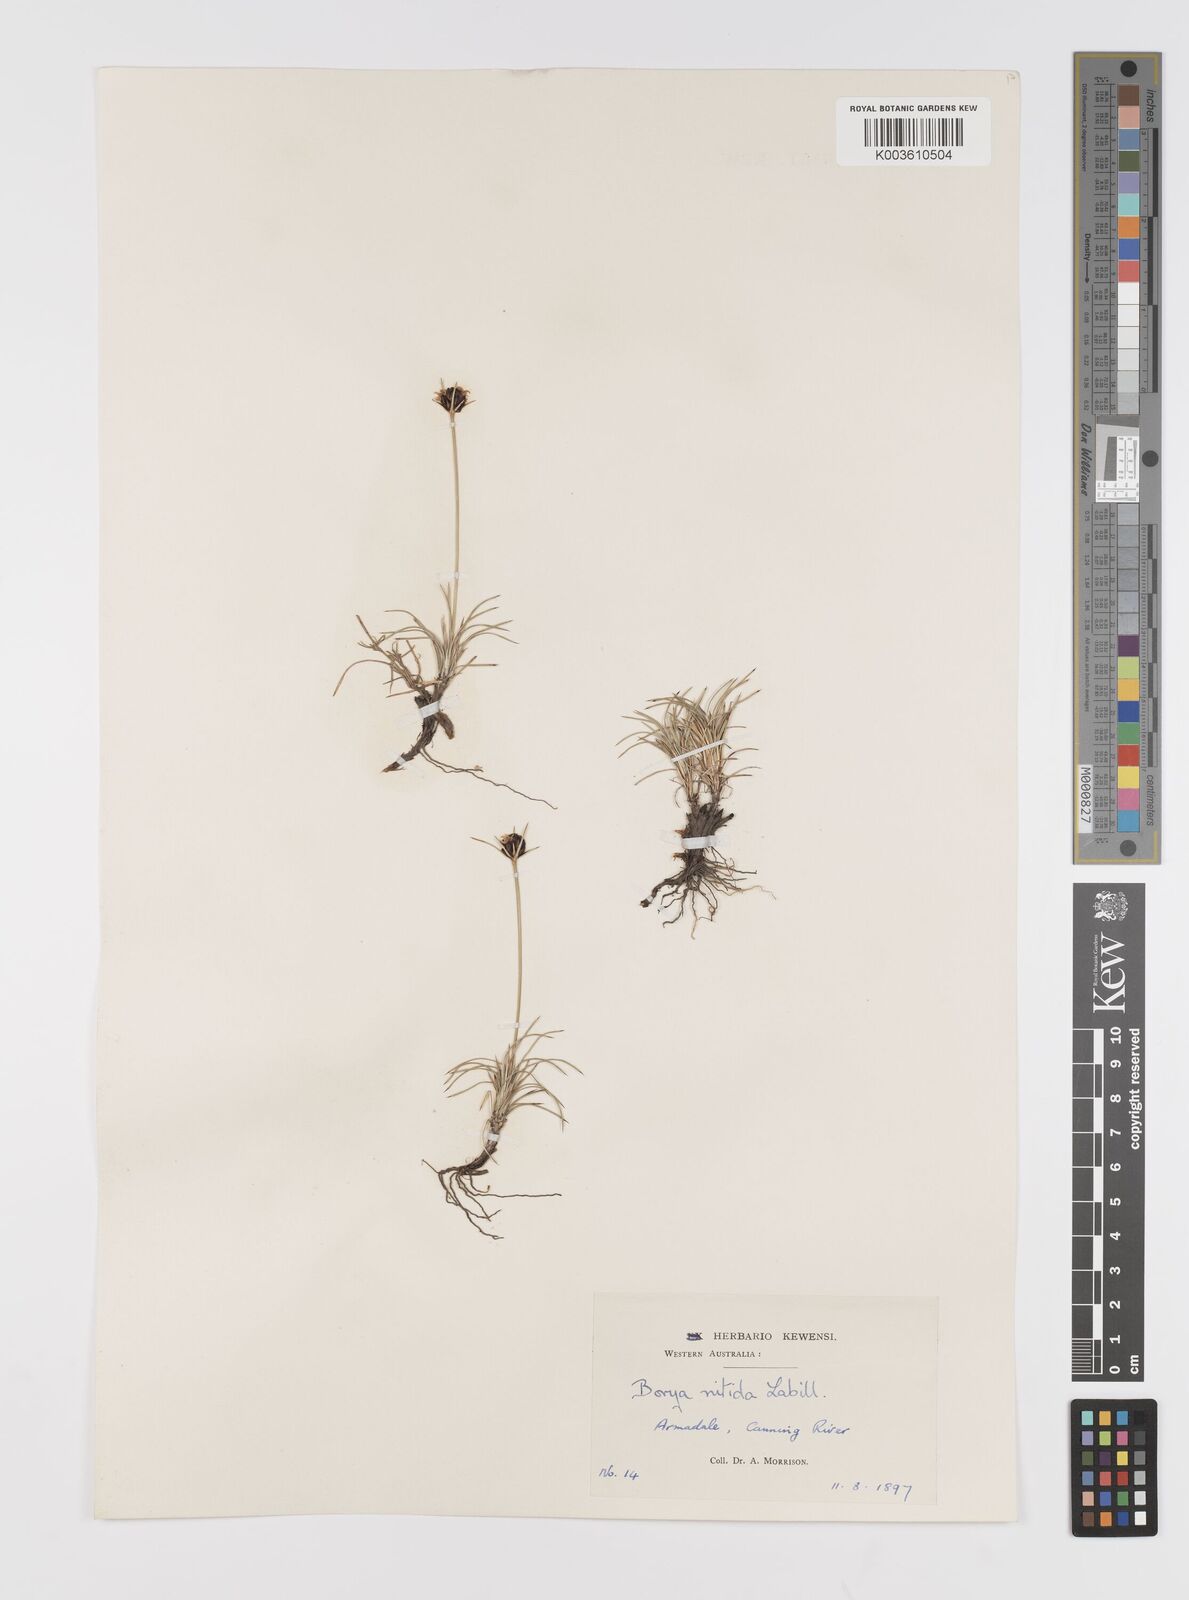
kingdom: Plantae
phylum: Tracheophyta
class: Liliopsida
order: Asparagales
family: Boryaceae
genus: Borya
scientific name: Borya nitida
